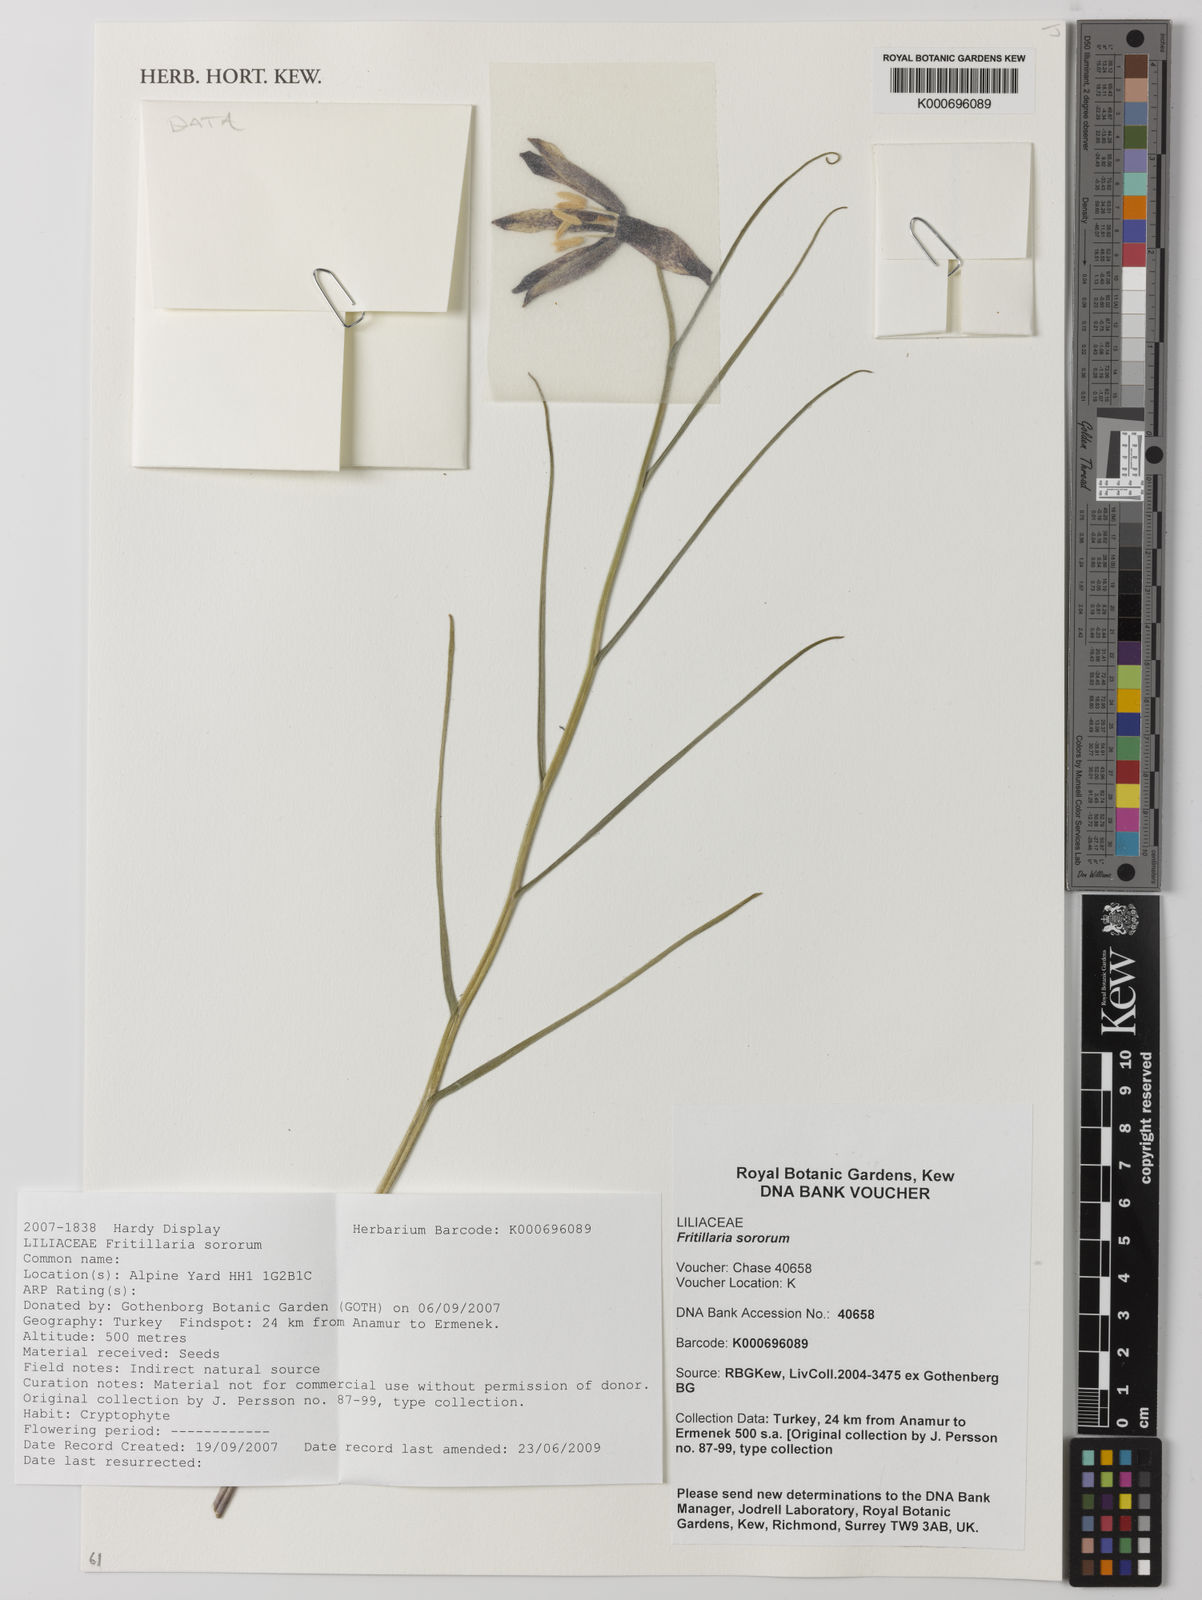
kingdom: Plantae
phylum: Tracheophyta
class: Liliopsida
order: Liliales
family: Liliaceae
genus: Fritillaria
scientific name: Fritillaria sororum
